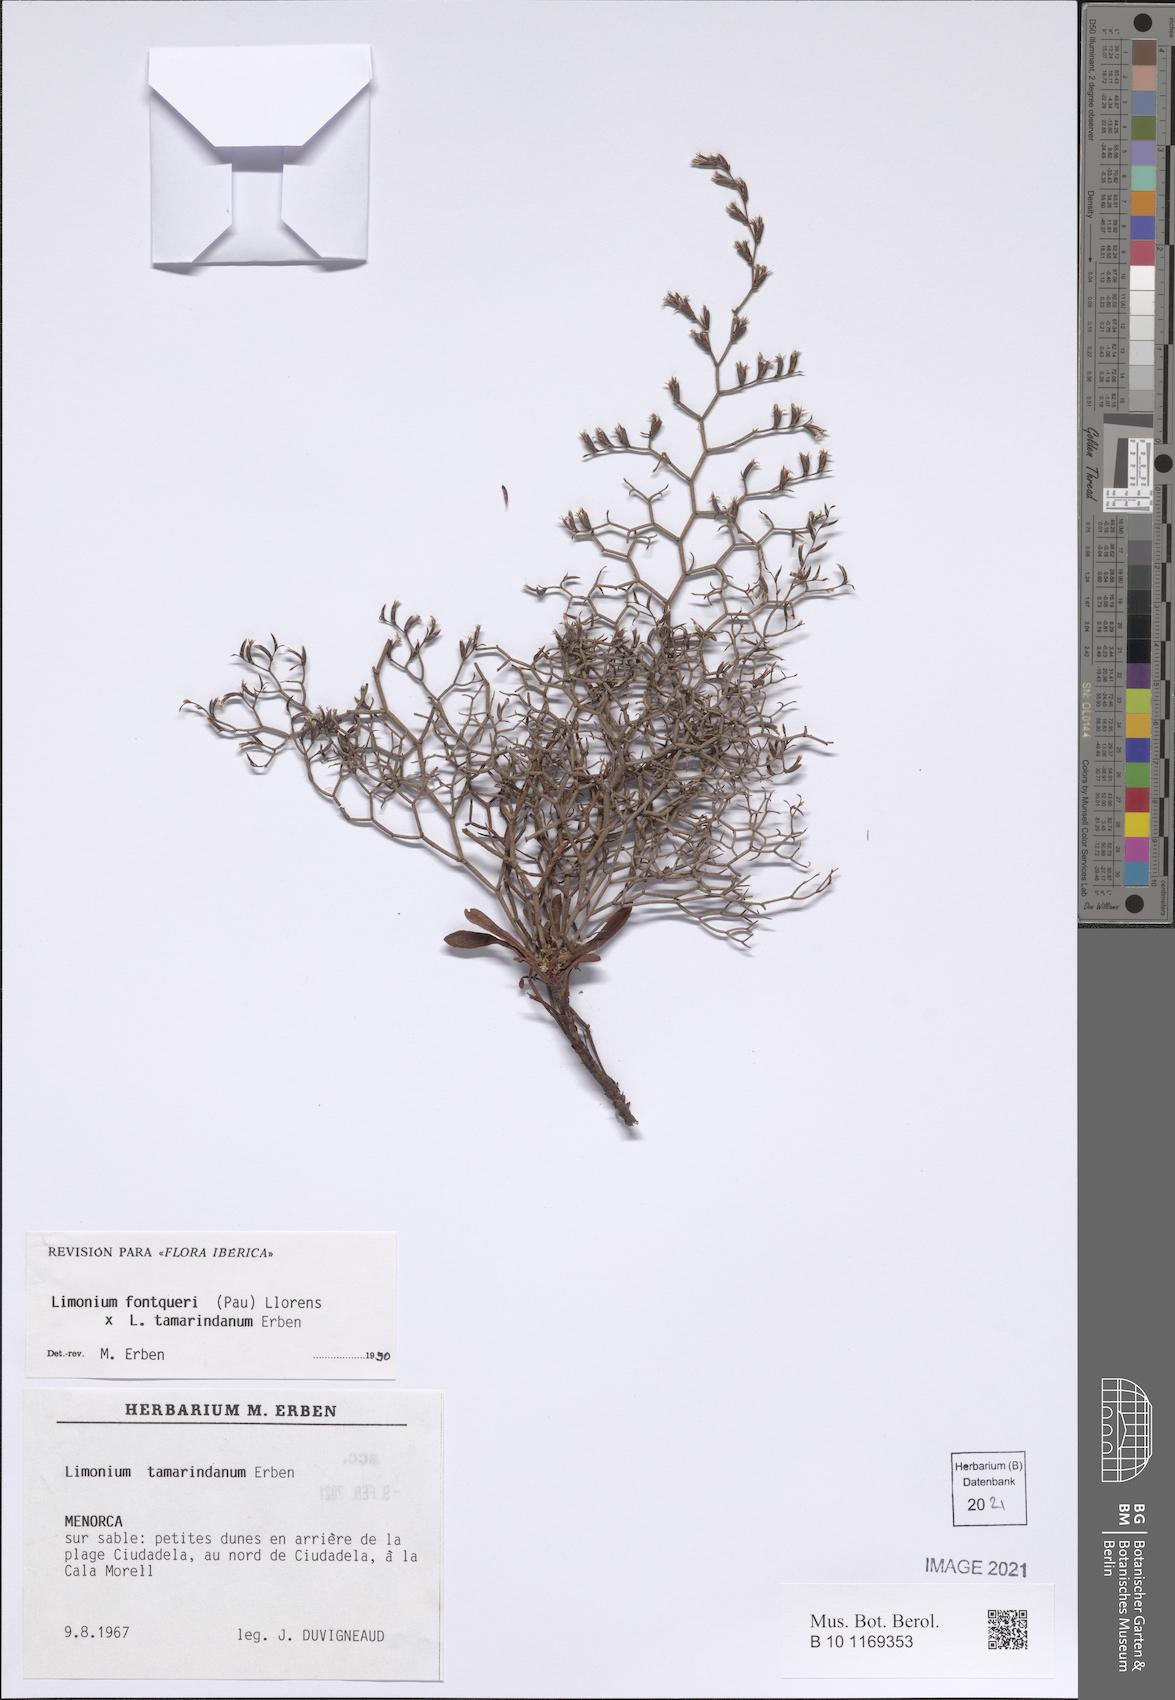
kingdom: Plantae
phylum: Tracheophyta
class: Magnoliopsida
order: Caryophyllales
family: Plumbaginaceae
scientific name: Plumbaginaceae
